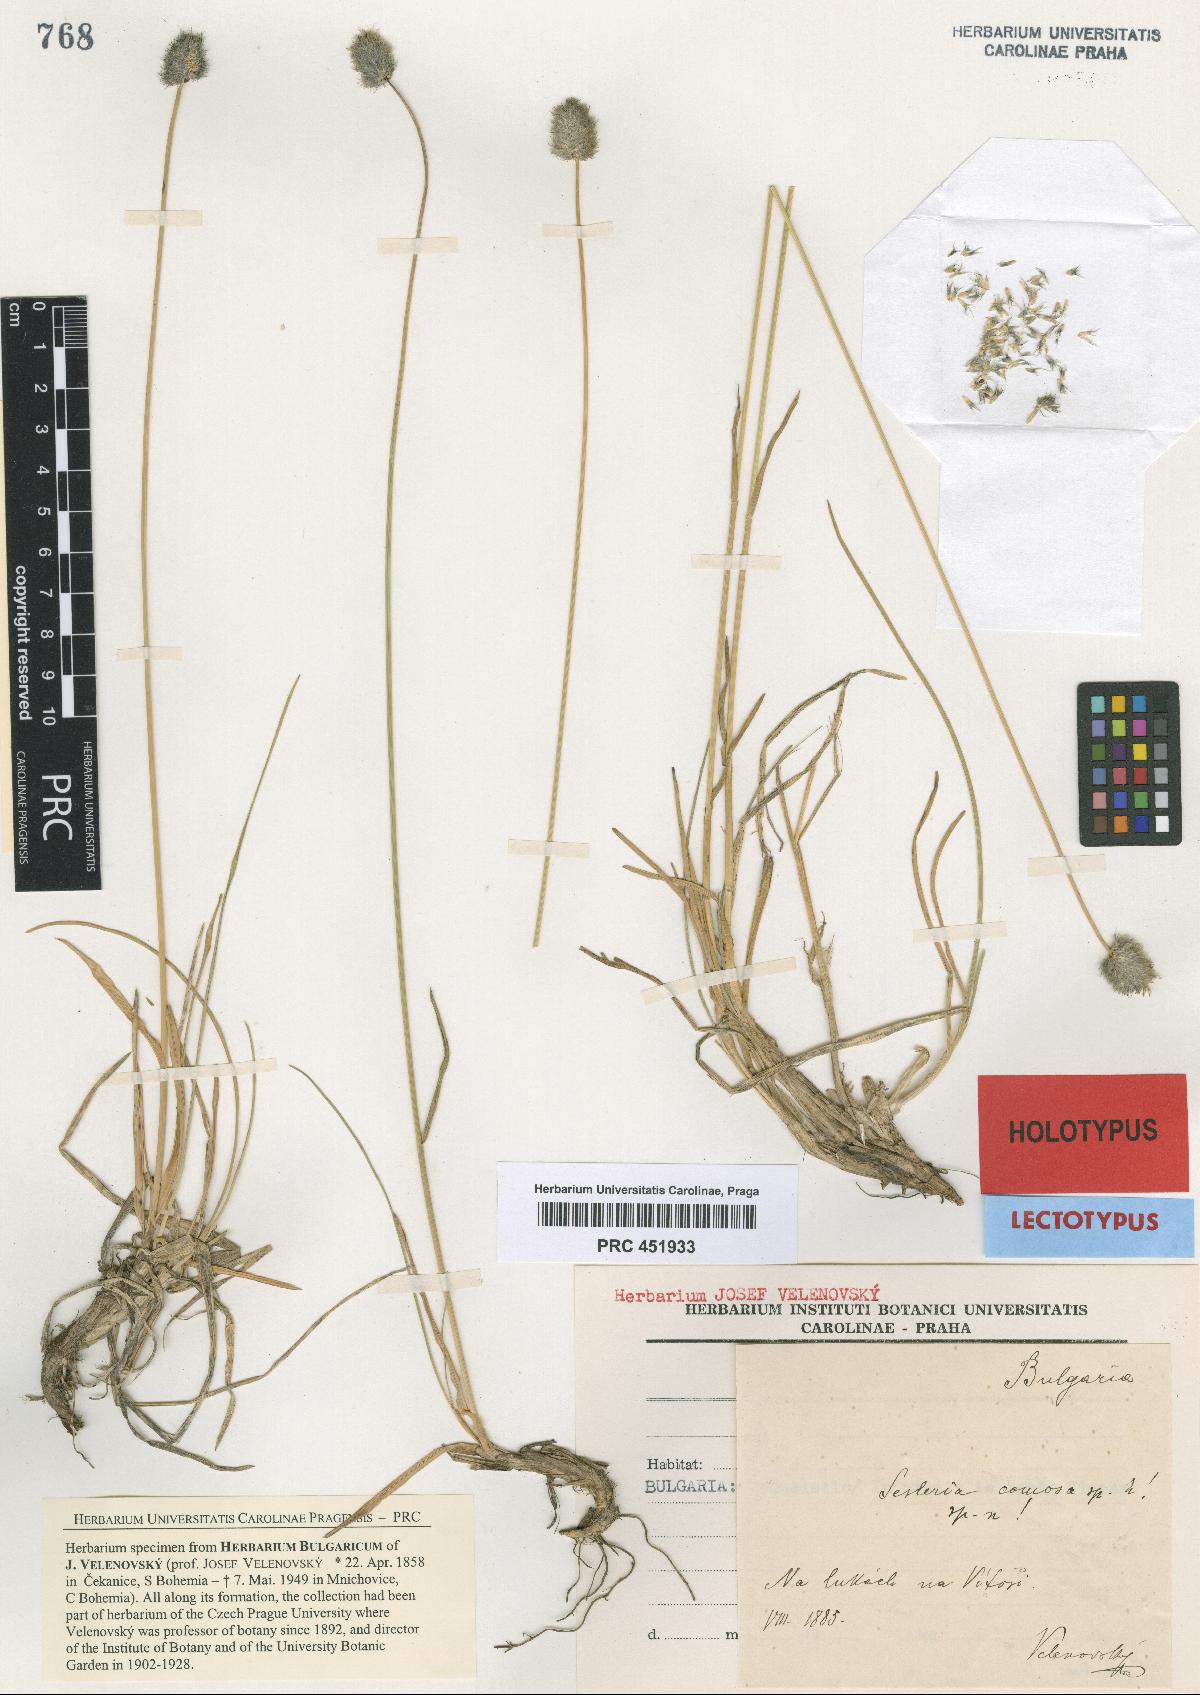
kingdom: Plantae
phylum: Tracheophyta
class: Liliopsida
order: Poales
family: Poaceae
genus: Sesleria
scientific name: Sesleria comosa
